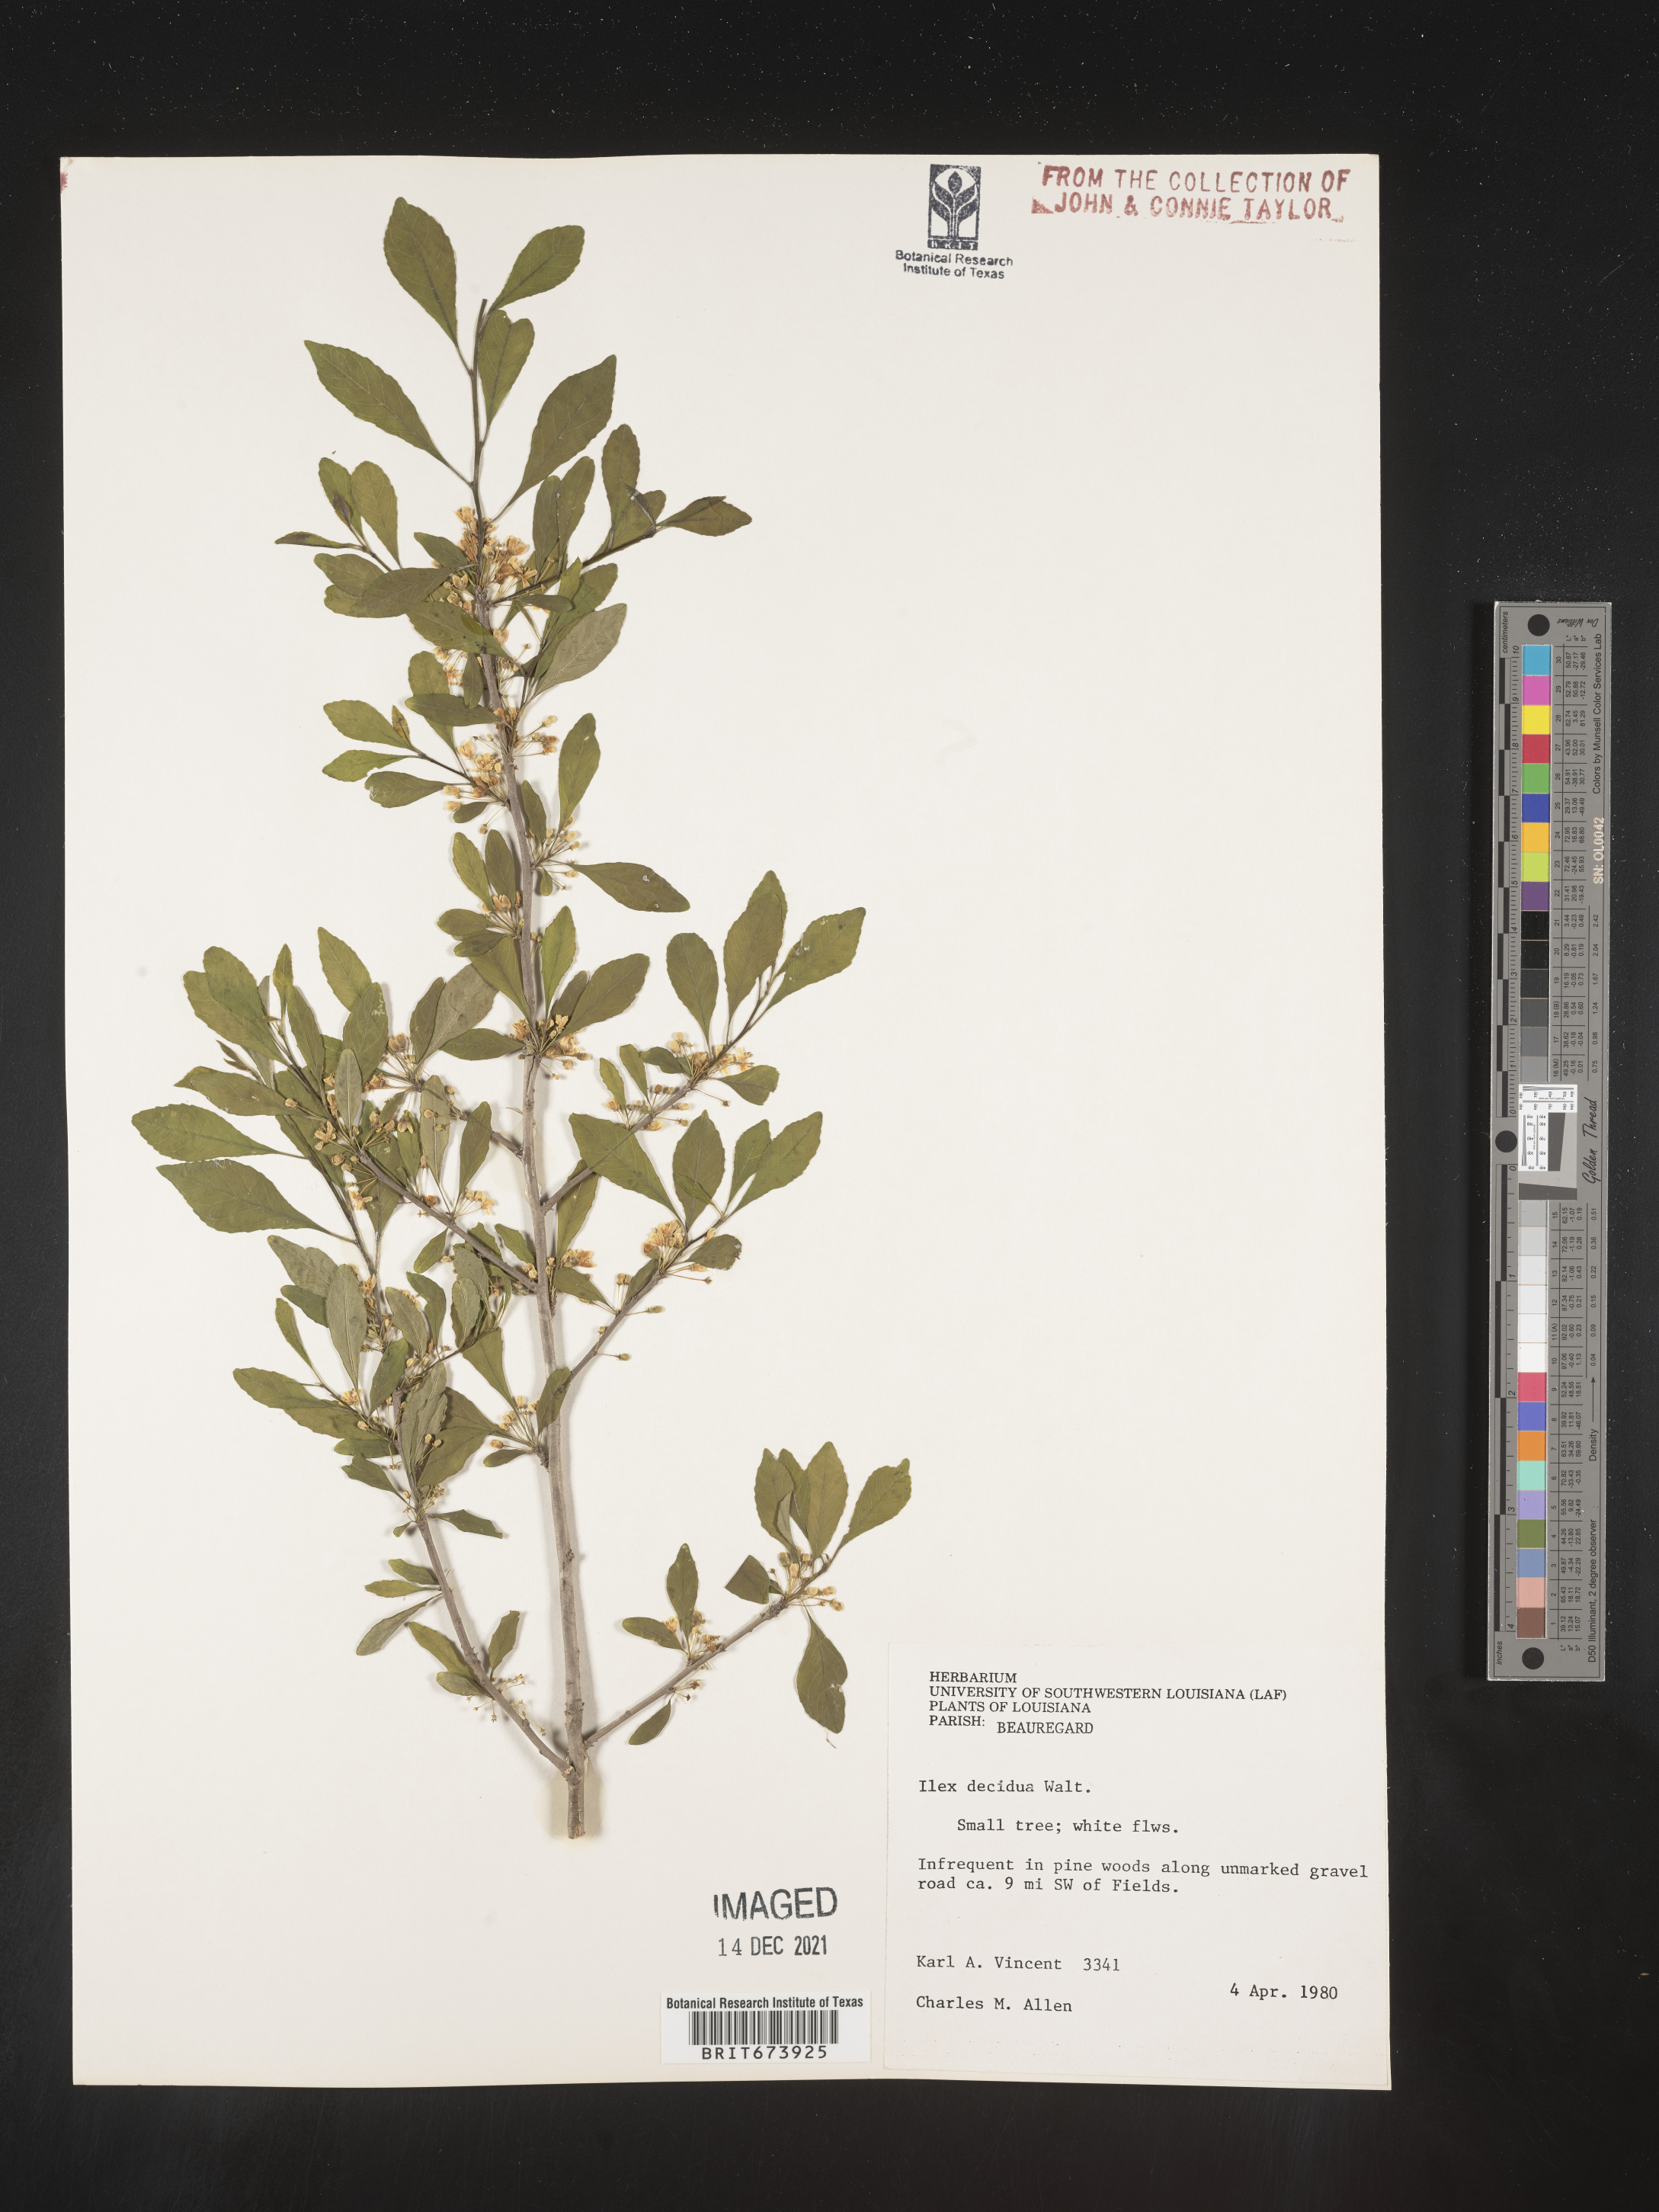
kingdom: Plantae
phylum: Tracheophyta
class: Magnoliopsida
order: Aquifoliales
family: Aquifoliaceae
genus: Ilex
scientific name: Ilex decidua
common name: Possum-haw
